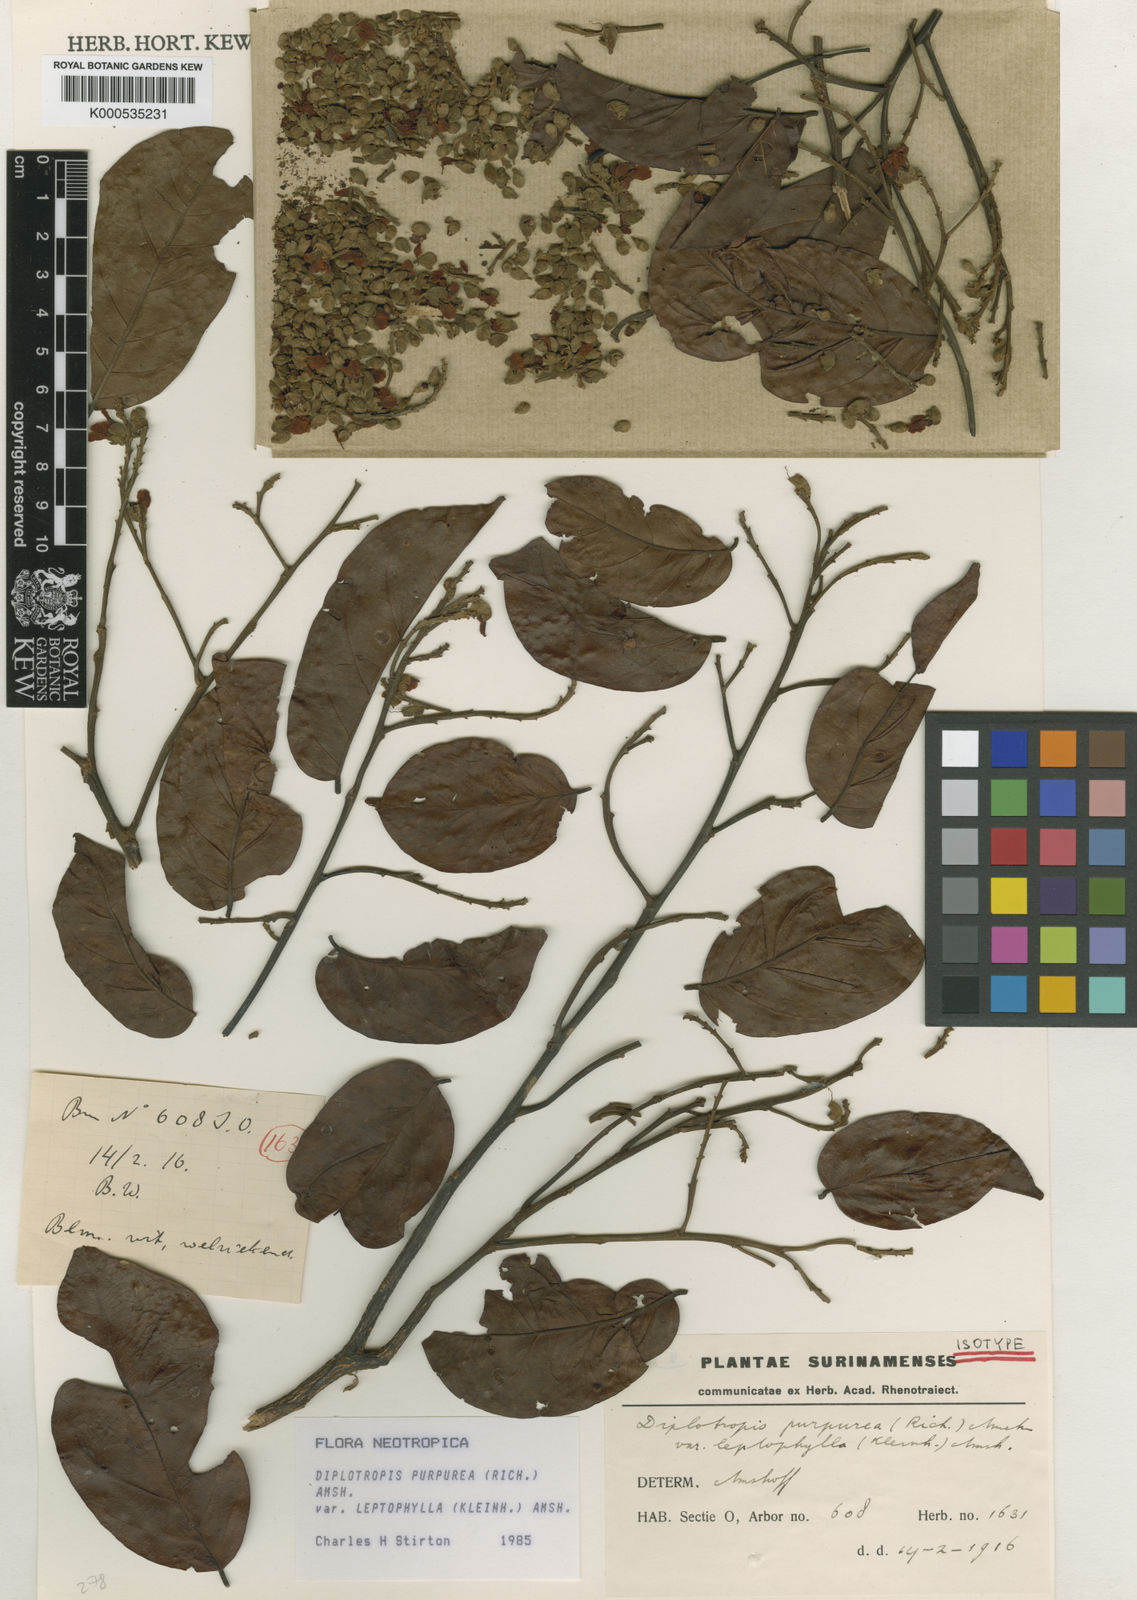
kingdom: Plantae
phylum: Tracheophyta
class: Magnoliopsida
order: Fabales
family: Fabaceae
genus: Diplotropis
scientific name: Diplotropis purpurea
